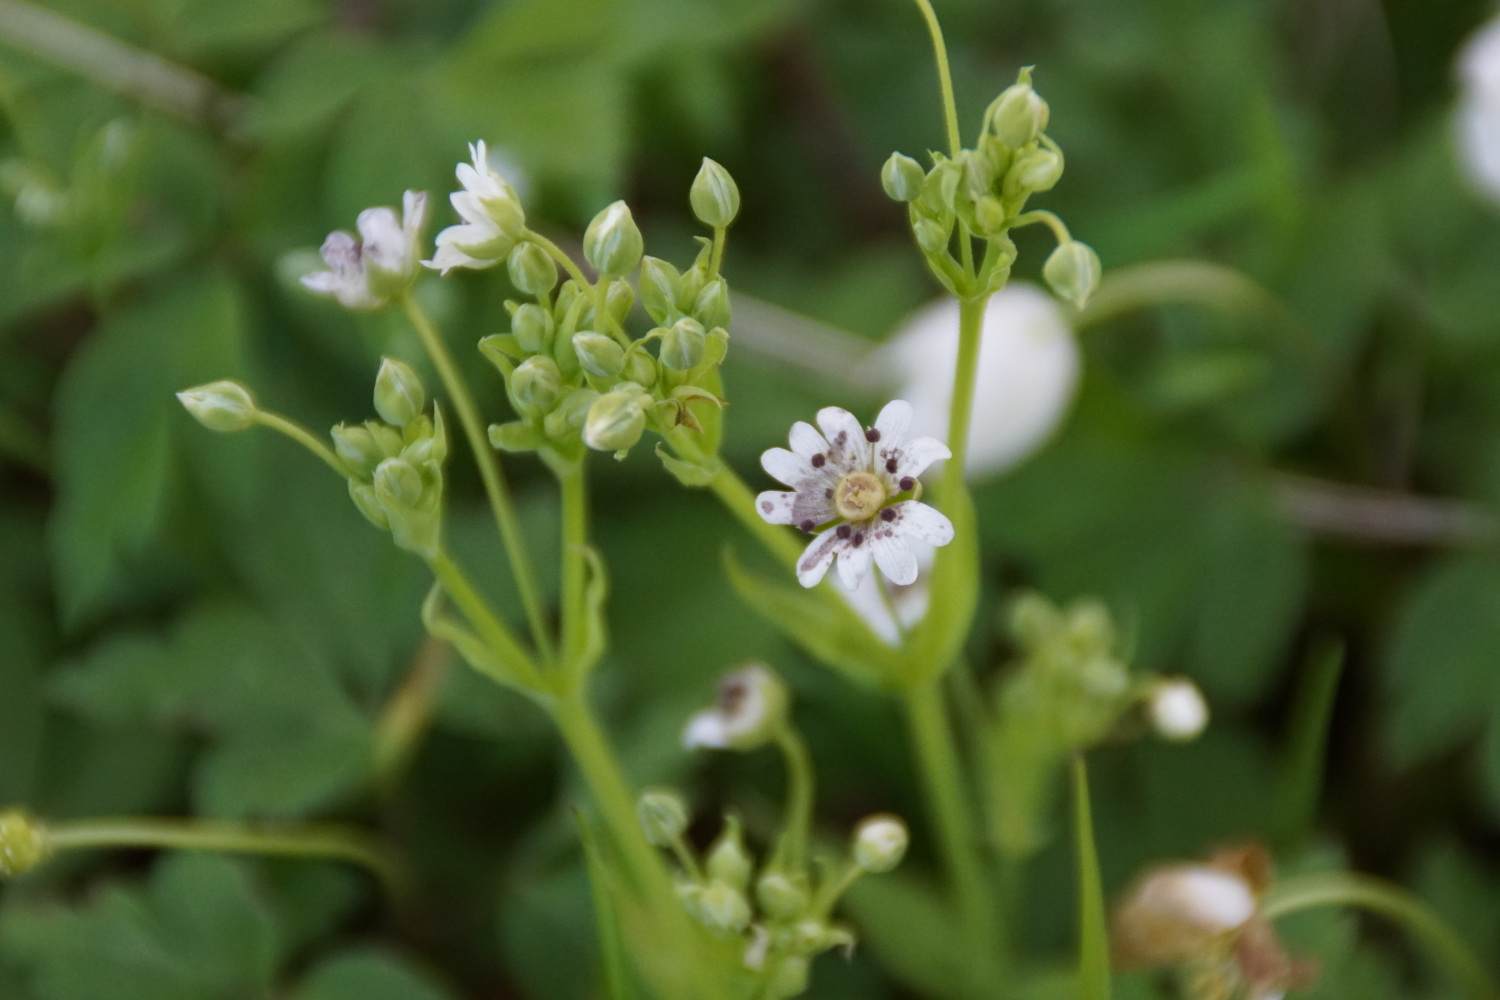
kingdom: Fungi
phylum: Basidiomycota
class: Microbotryomycetes
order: Microbotryales
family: Microbotryaceae
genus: Microbotryum
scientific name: Microbotryum stellariae
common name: fladstjerne-støvbladrust
